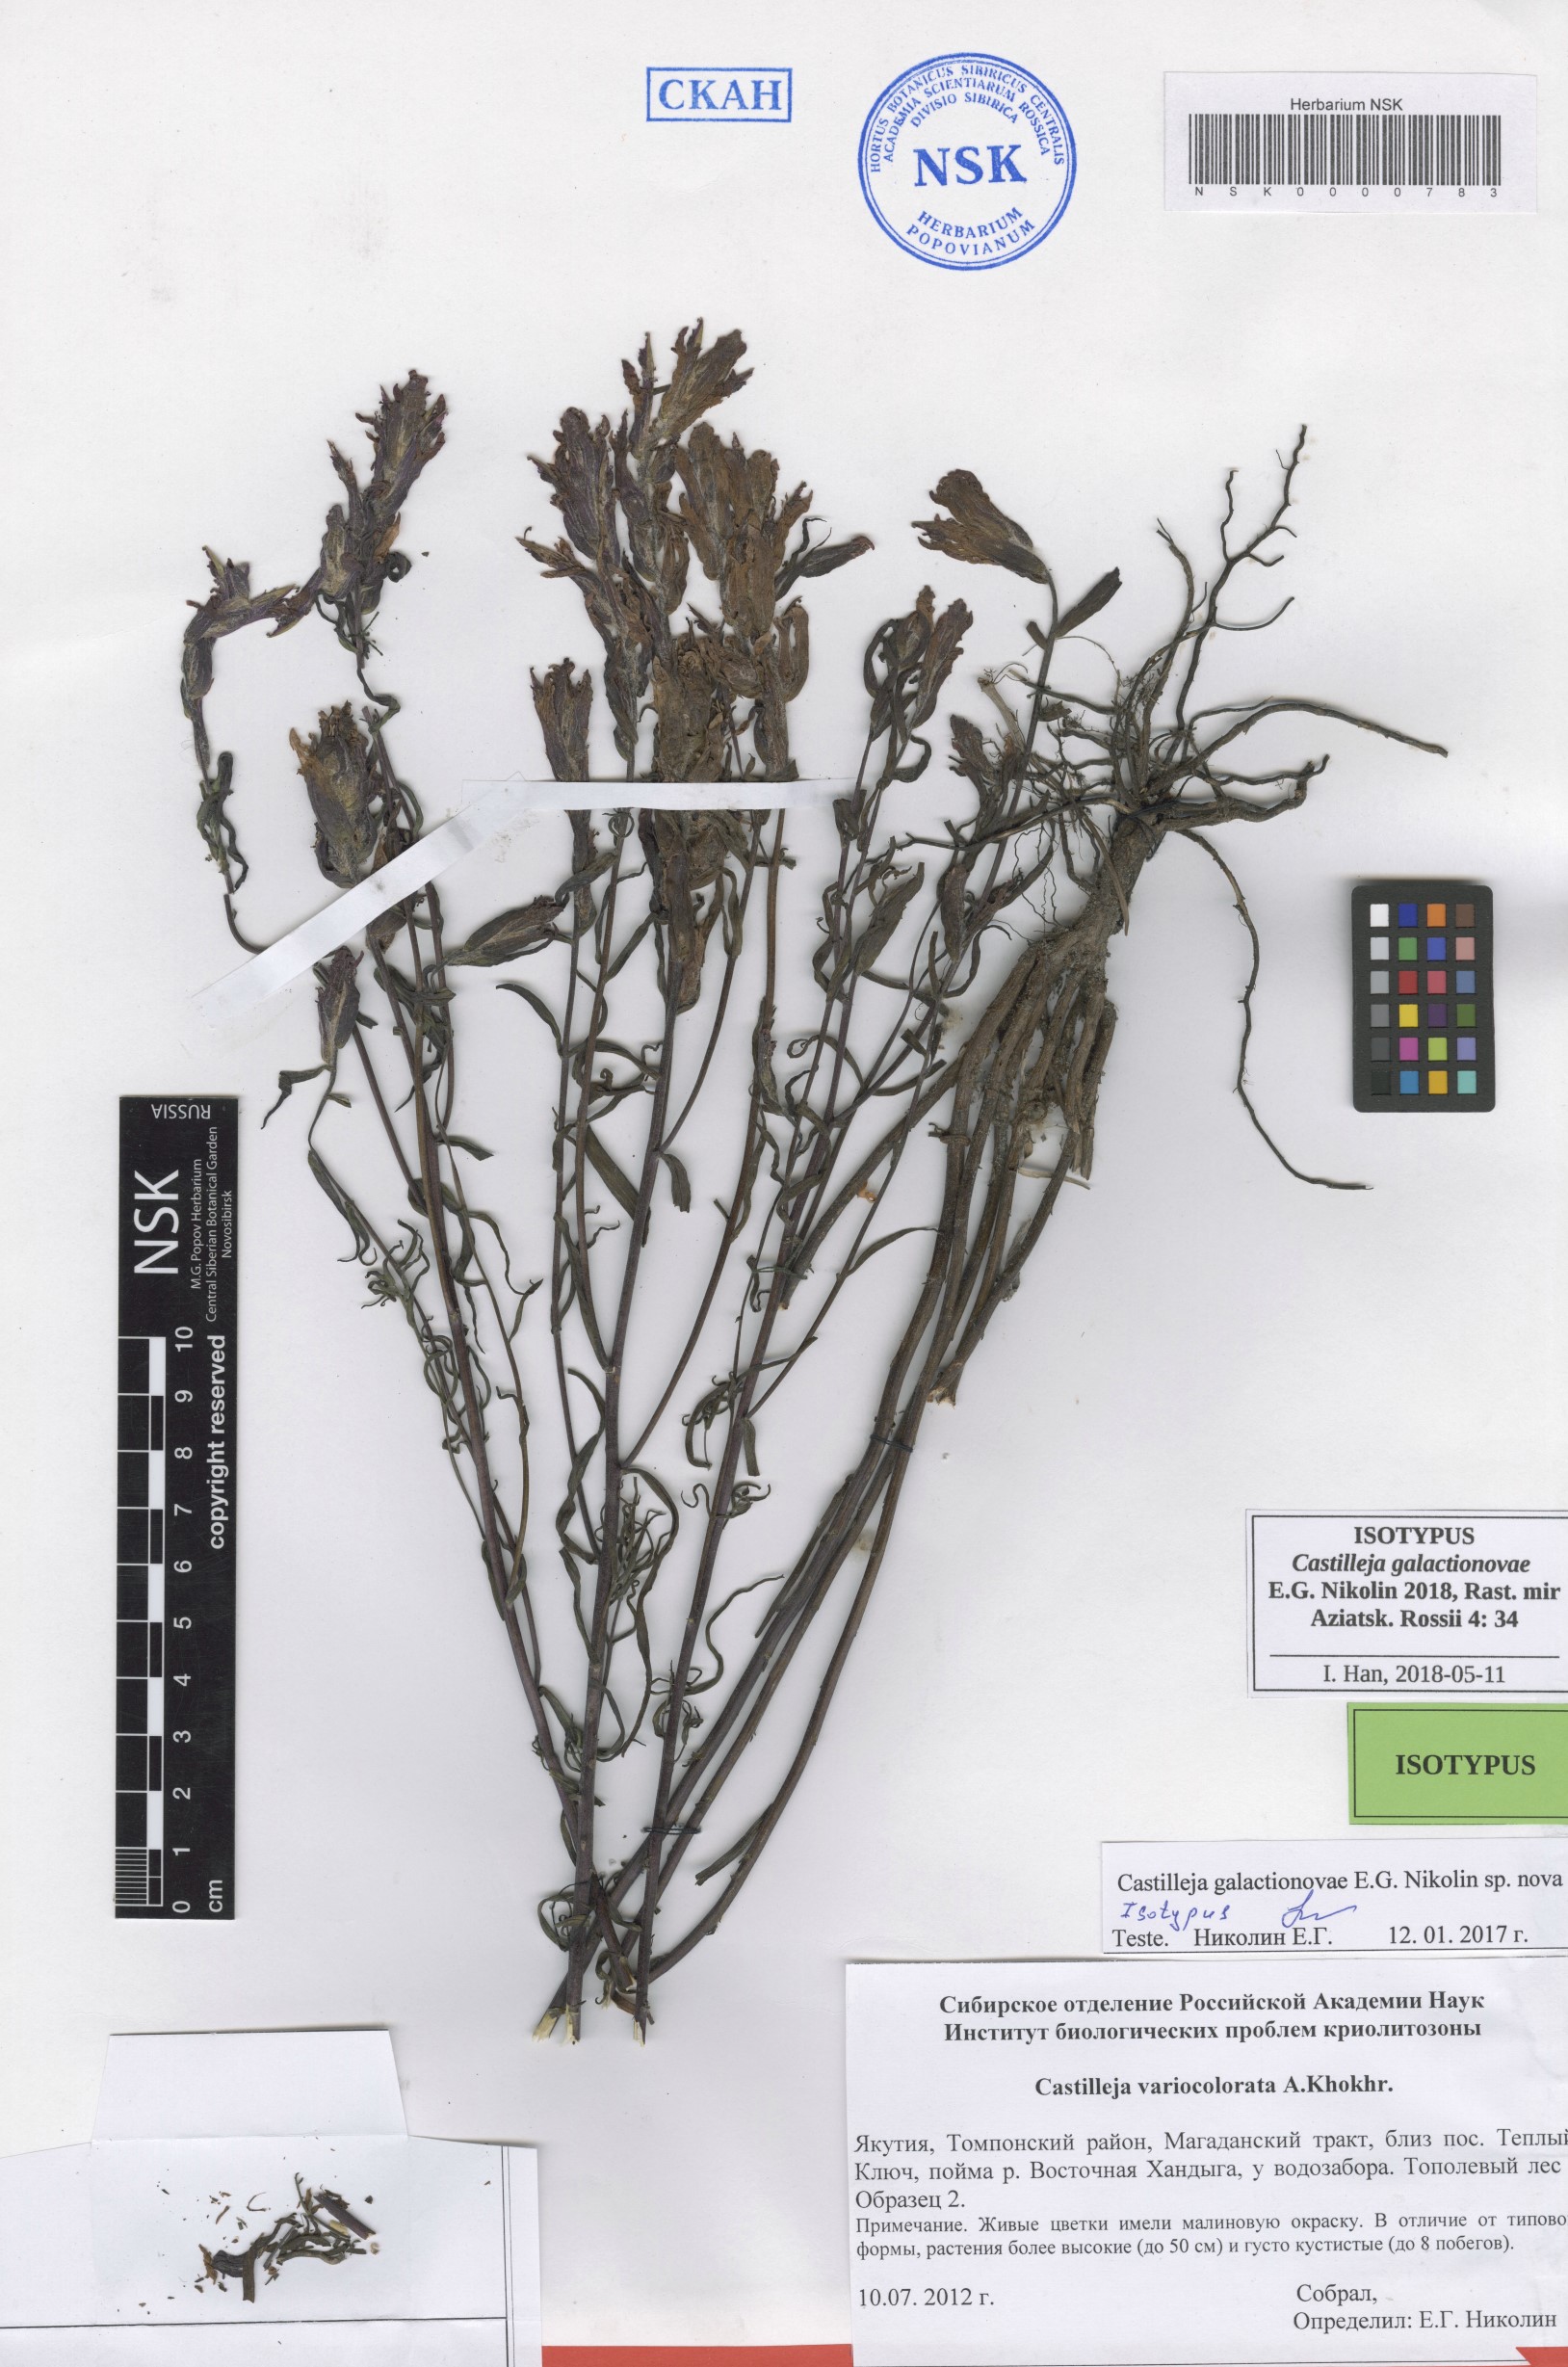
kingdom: Plantae
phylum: Tracheophyta
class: Magnoliopsida
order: Lamiales
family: Orobanchaceae
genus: Castilleja
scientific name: Castilleja galactionovae
